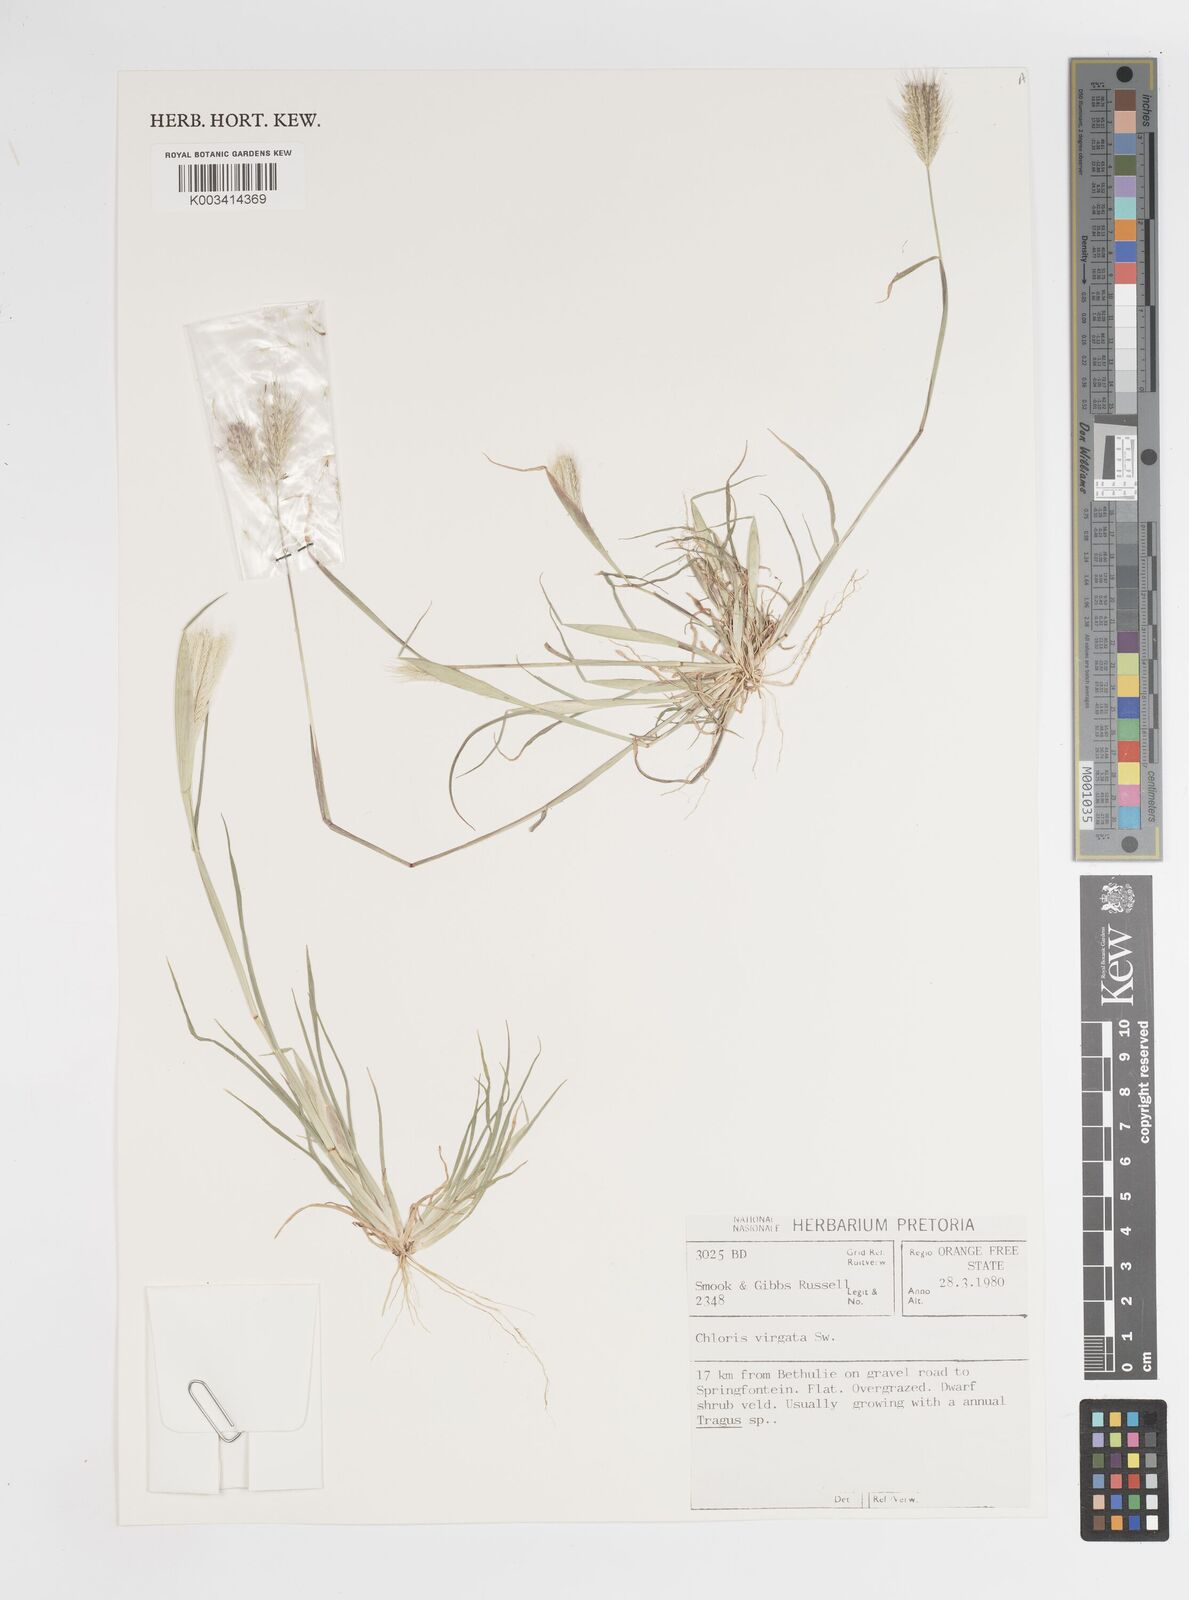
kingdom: Plantae
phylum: Tracheophyta
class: Liliopsida
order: Poales
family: Poaceae
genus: Chloris
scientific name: Chloris virgata
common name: Feathery rhodes-grass
